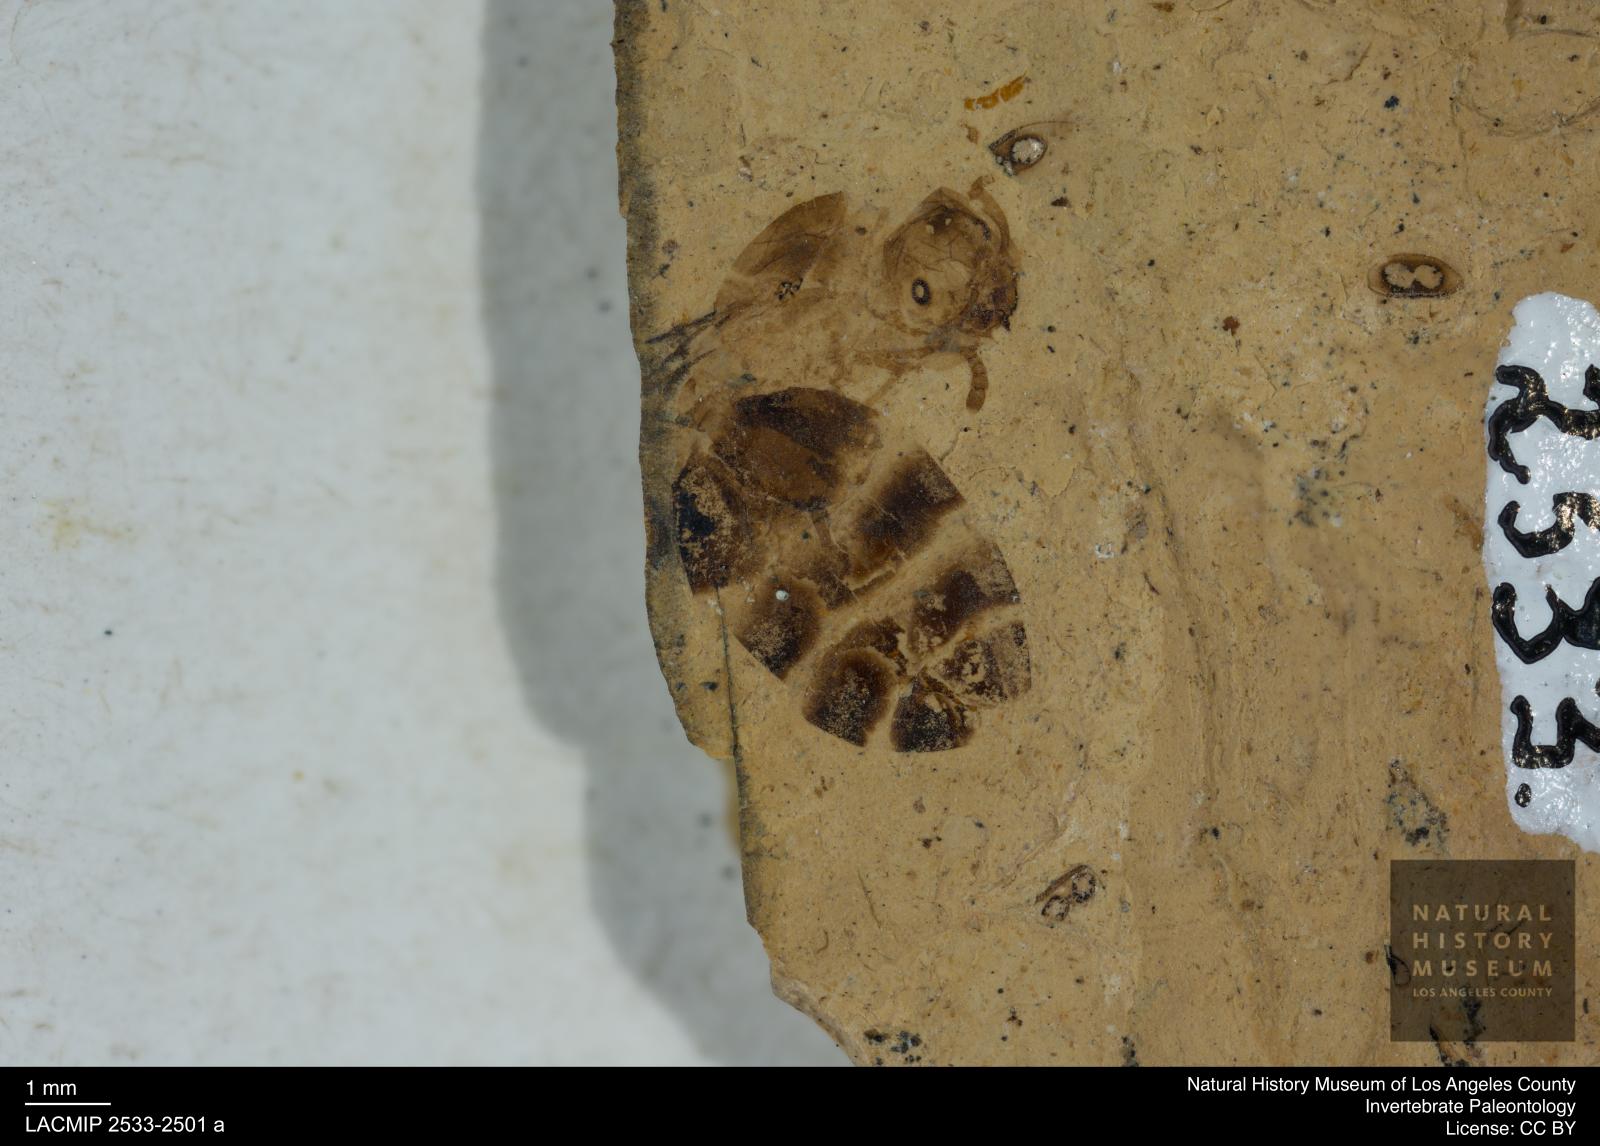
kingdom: Animalia
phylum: Arthropoda
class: Insecta
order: Hymenoptera
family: Formicidae
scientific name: Formicidae
